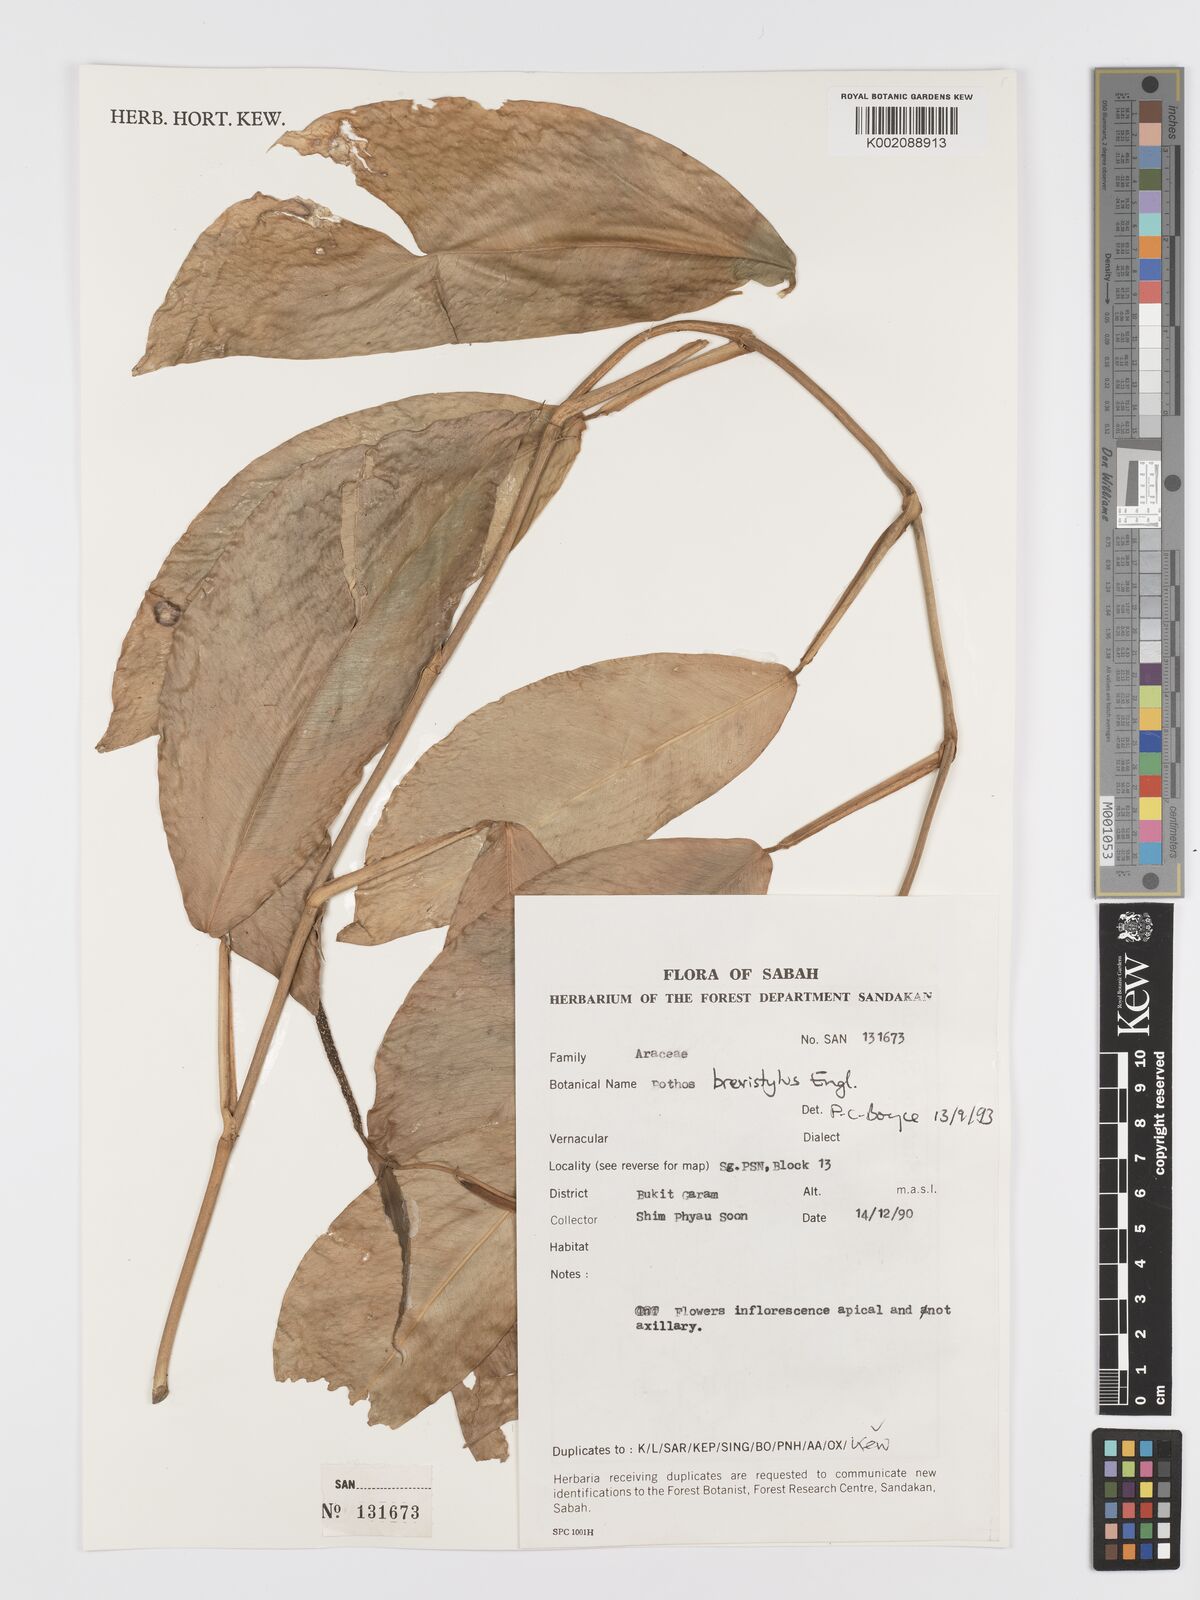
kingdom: Plantae
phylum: Tracheophyta
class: Liliopsida
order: Alismatales
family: Araceae
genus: Pothos
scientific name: Pothos brevistylus
